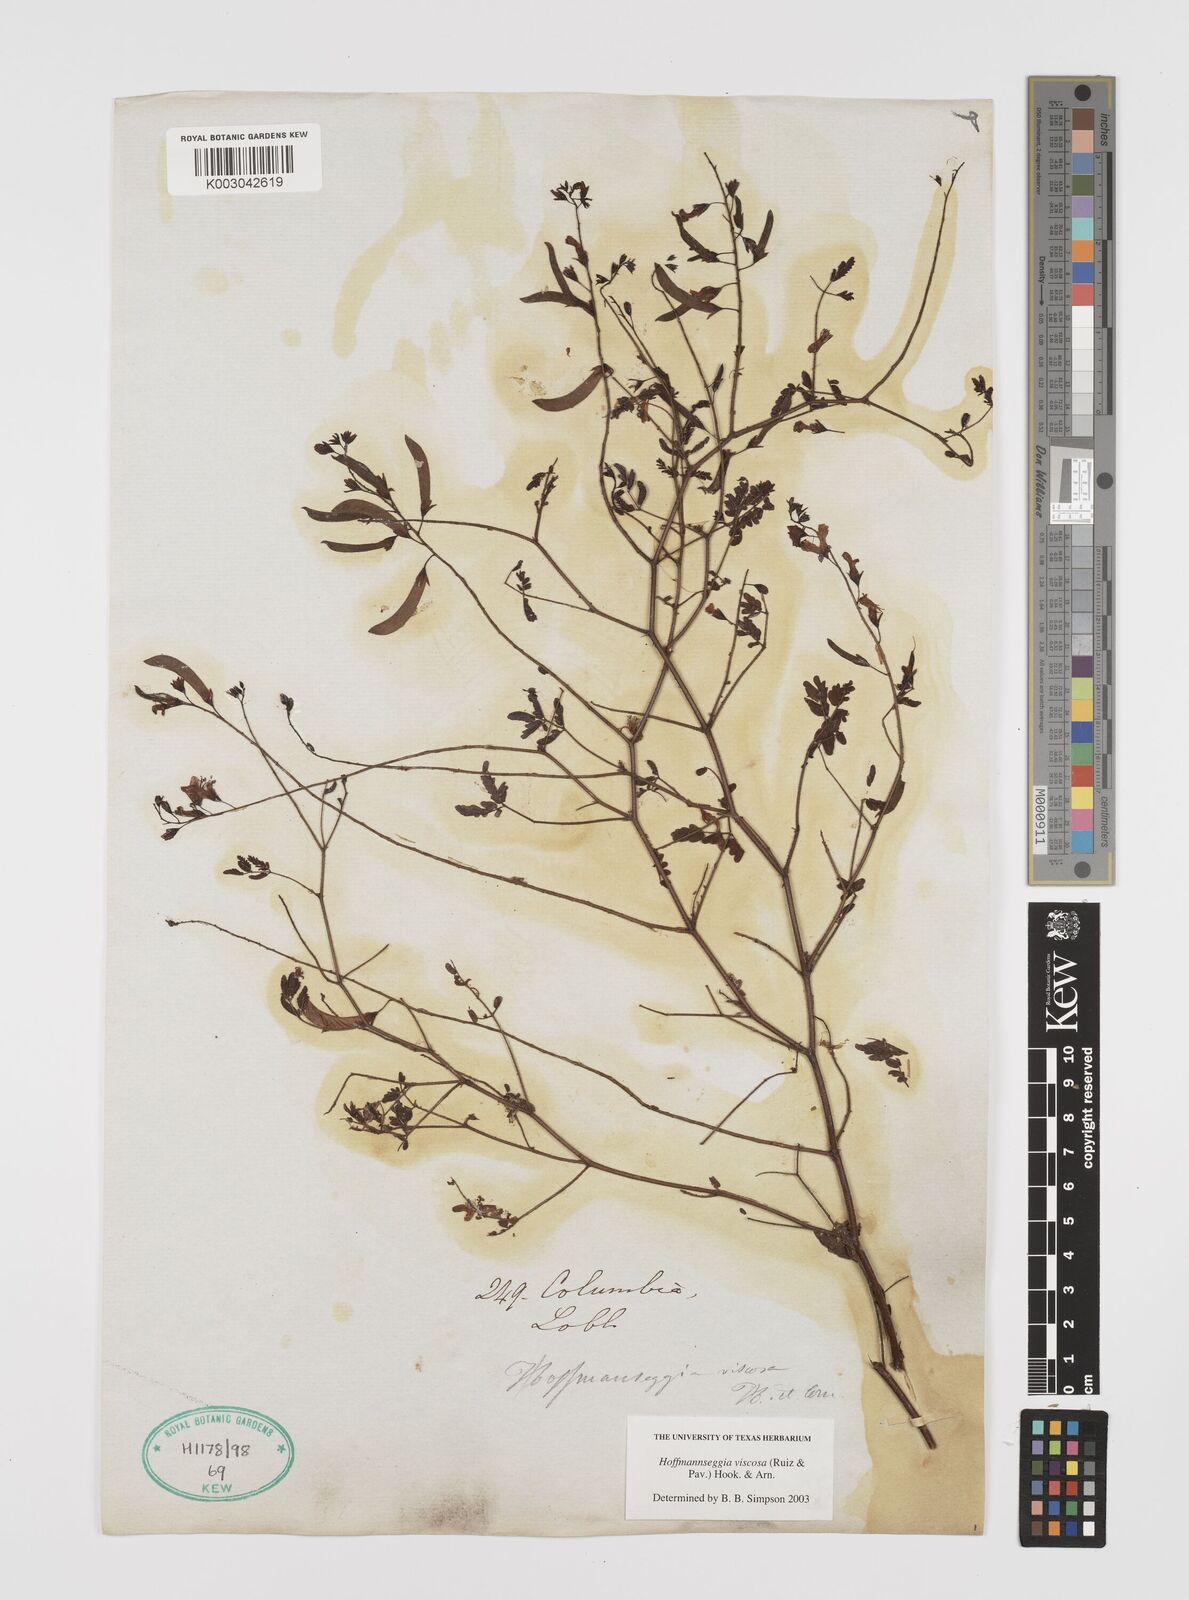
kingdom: Plantae
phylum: Tracheophyta
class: Magnoliopsida
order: Fabales
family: Fabaceae
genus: Hoffmannseggia
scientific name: Hoffmannseggia viscosa
